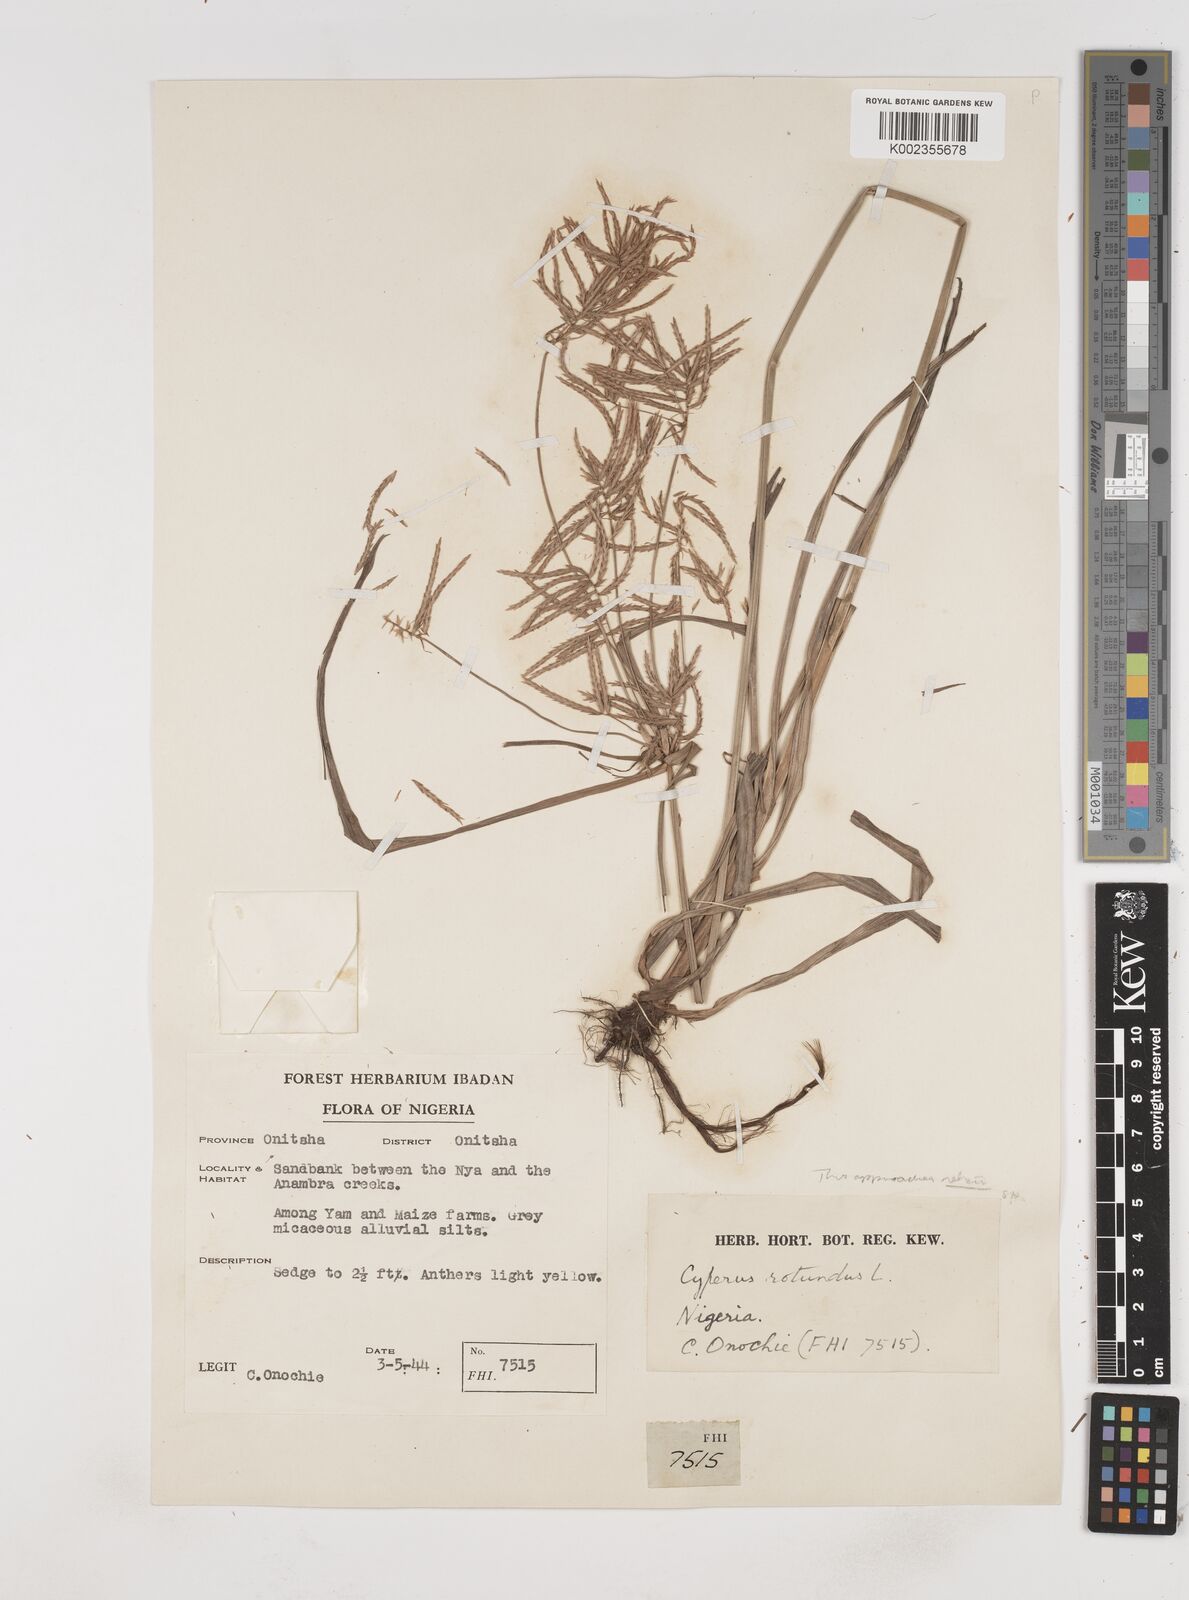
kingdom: Plantae
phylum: Tracheophyta
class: Liliopsida
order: Poales
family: Cyperaceae
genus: Cyperus
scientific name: Cyperus tuberosus
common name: Nut grass
